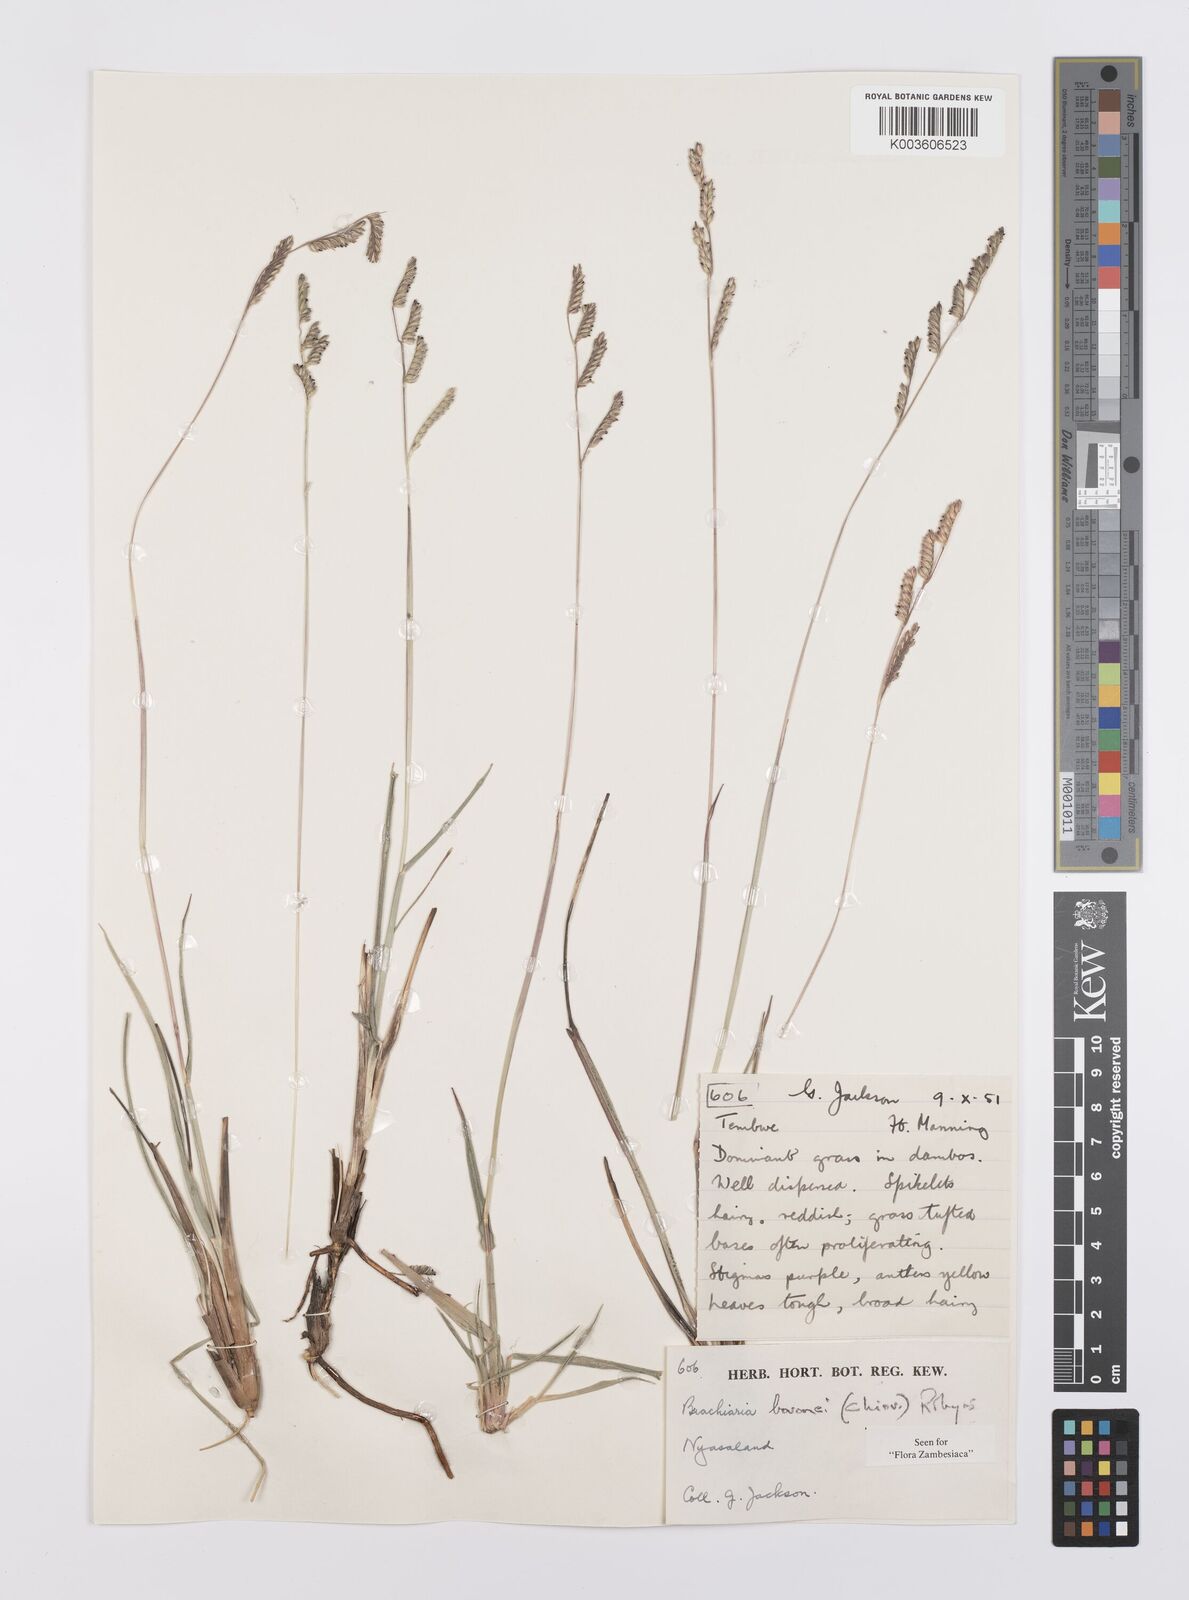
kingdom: Plantae
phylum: Tracheophyta
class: Liliopsida
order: Poales
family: Poaceae
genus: Urochloa
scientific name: Urochloa bovonei
